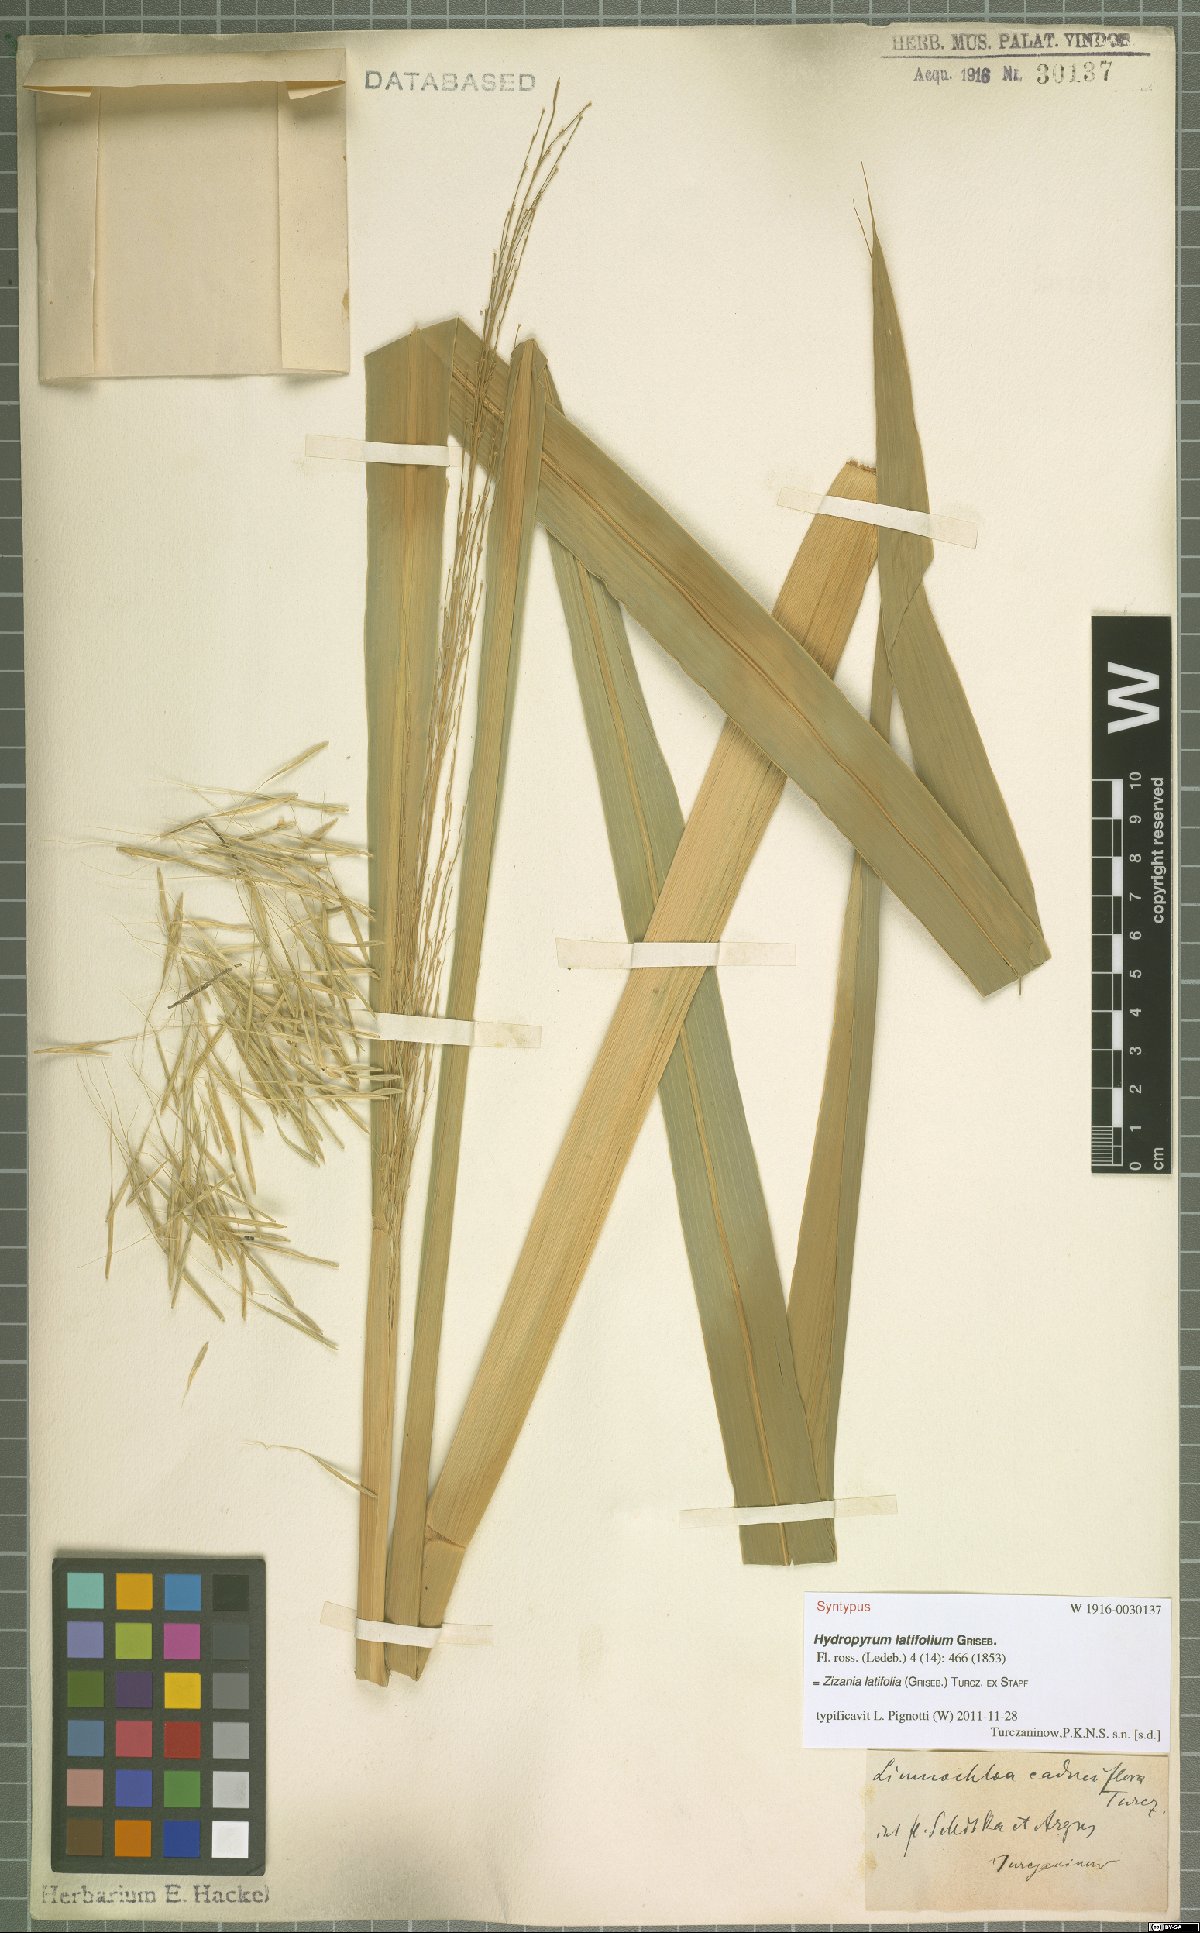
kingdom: Plantae
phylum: Tracheophyta
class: Liliopsida
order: Poales
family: Poaceae
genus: Zizania
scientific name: Zizania latifolia
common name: Manchurian wildrice
